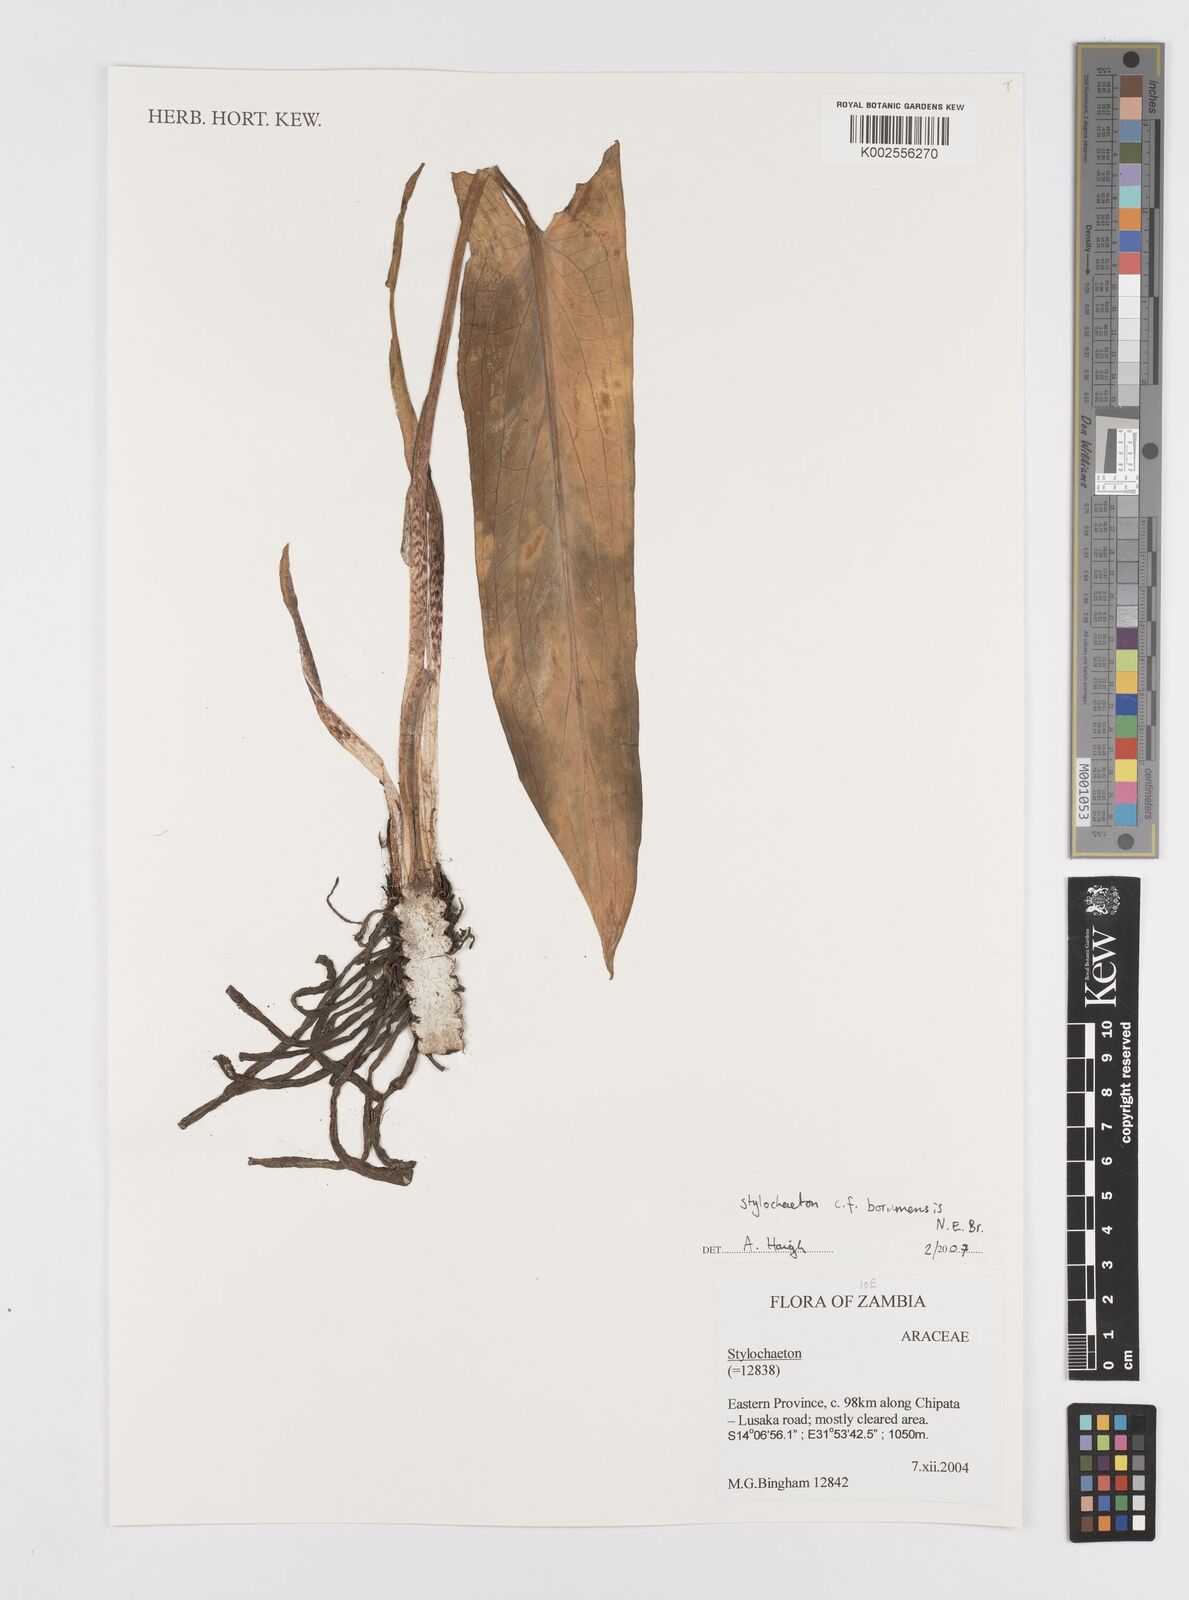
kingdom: Plantae
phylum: Tracheophyta
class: Liliopsida
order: Alismatales
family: Araceae
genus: Stylochaeton
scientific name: Stylochaeton borumense
